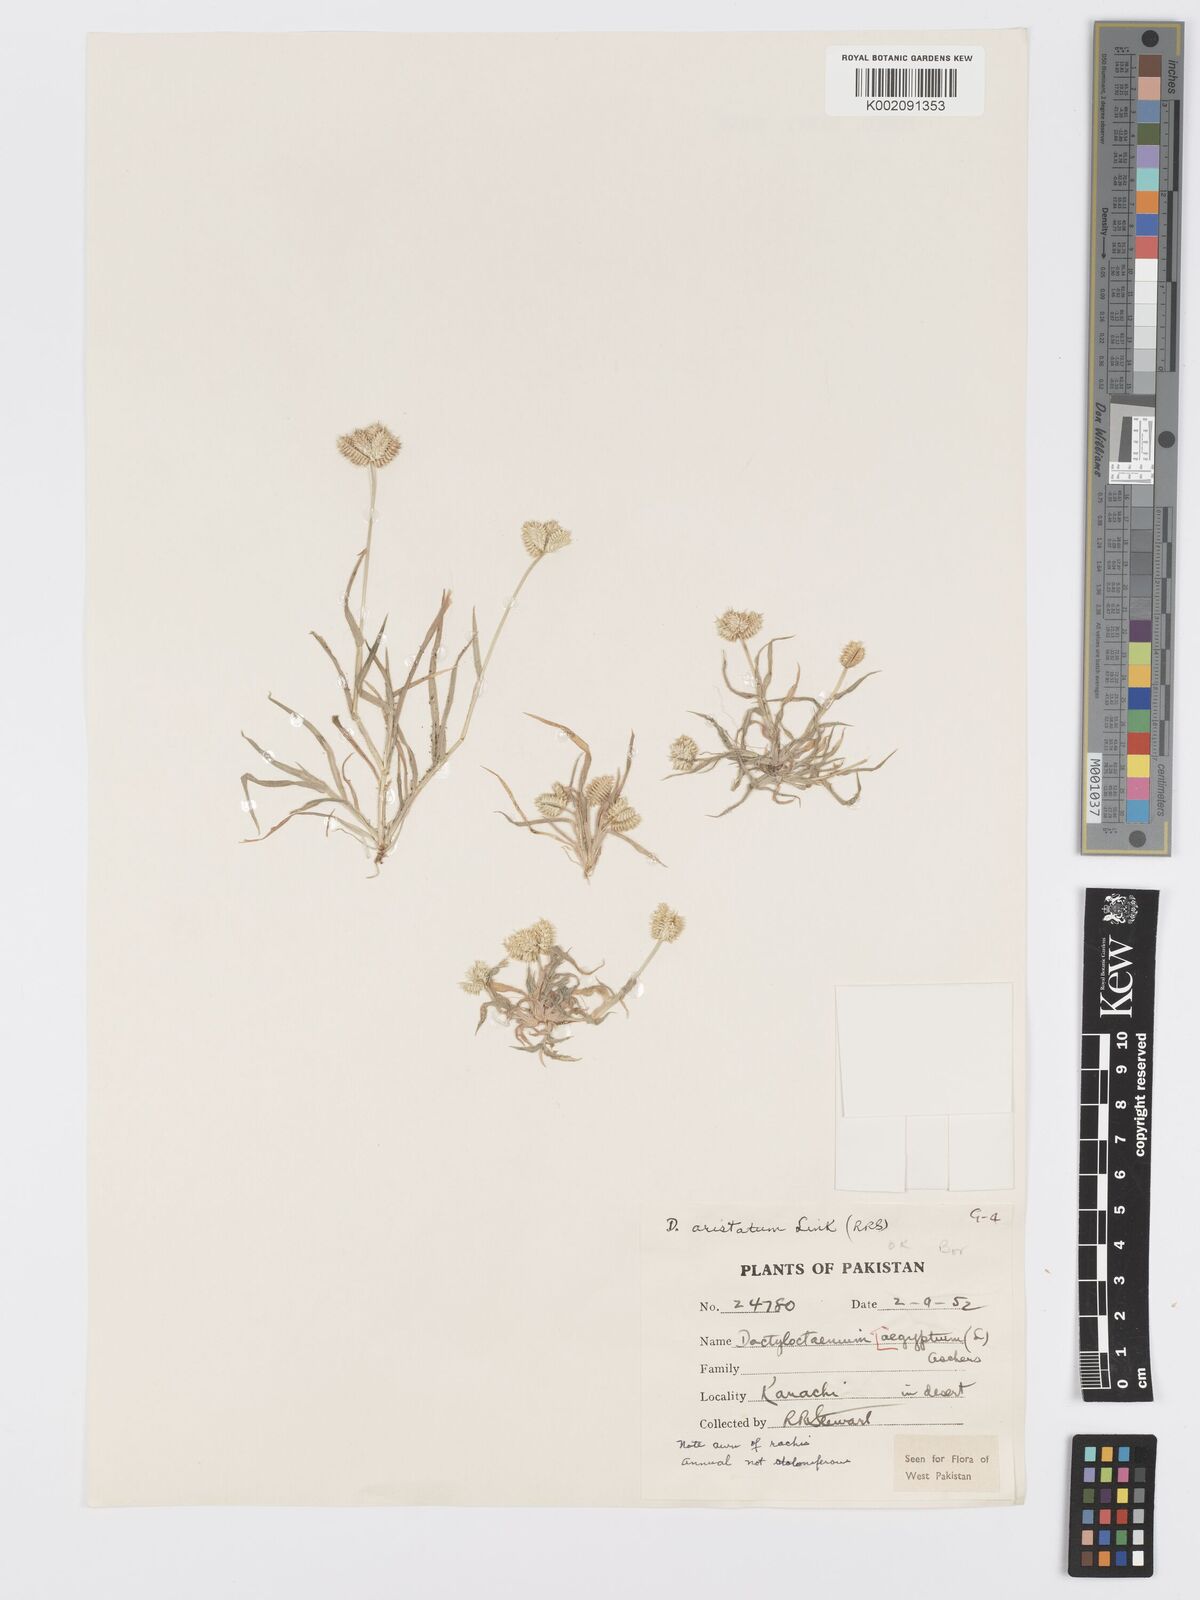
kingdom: Plantae
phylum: Tracheophyta
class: Liliopsida
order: Poales
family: Poaceae
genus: Dactyloctenium
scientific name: Dactyloctenium aristatum
